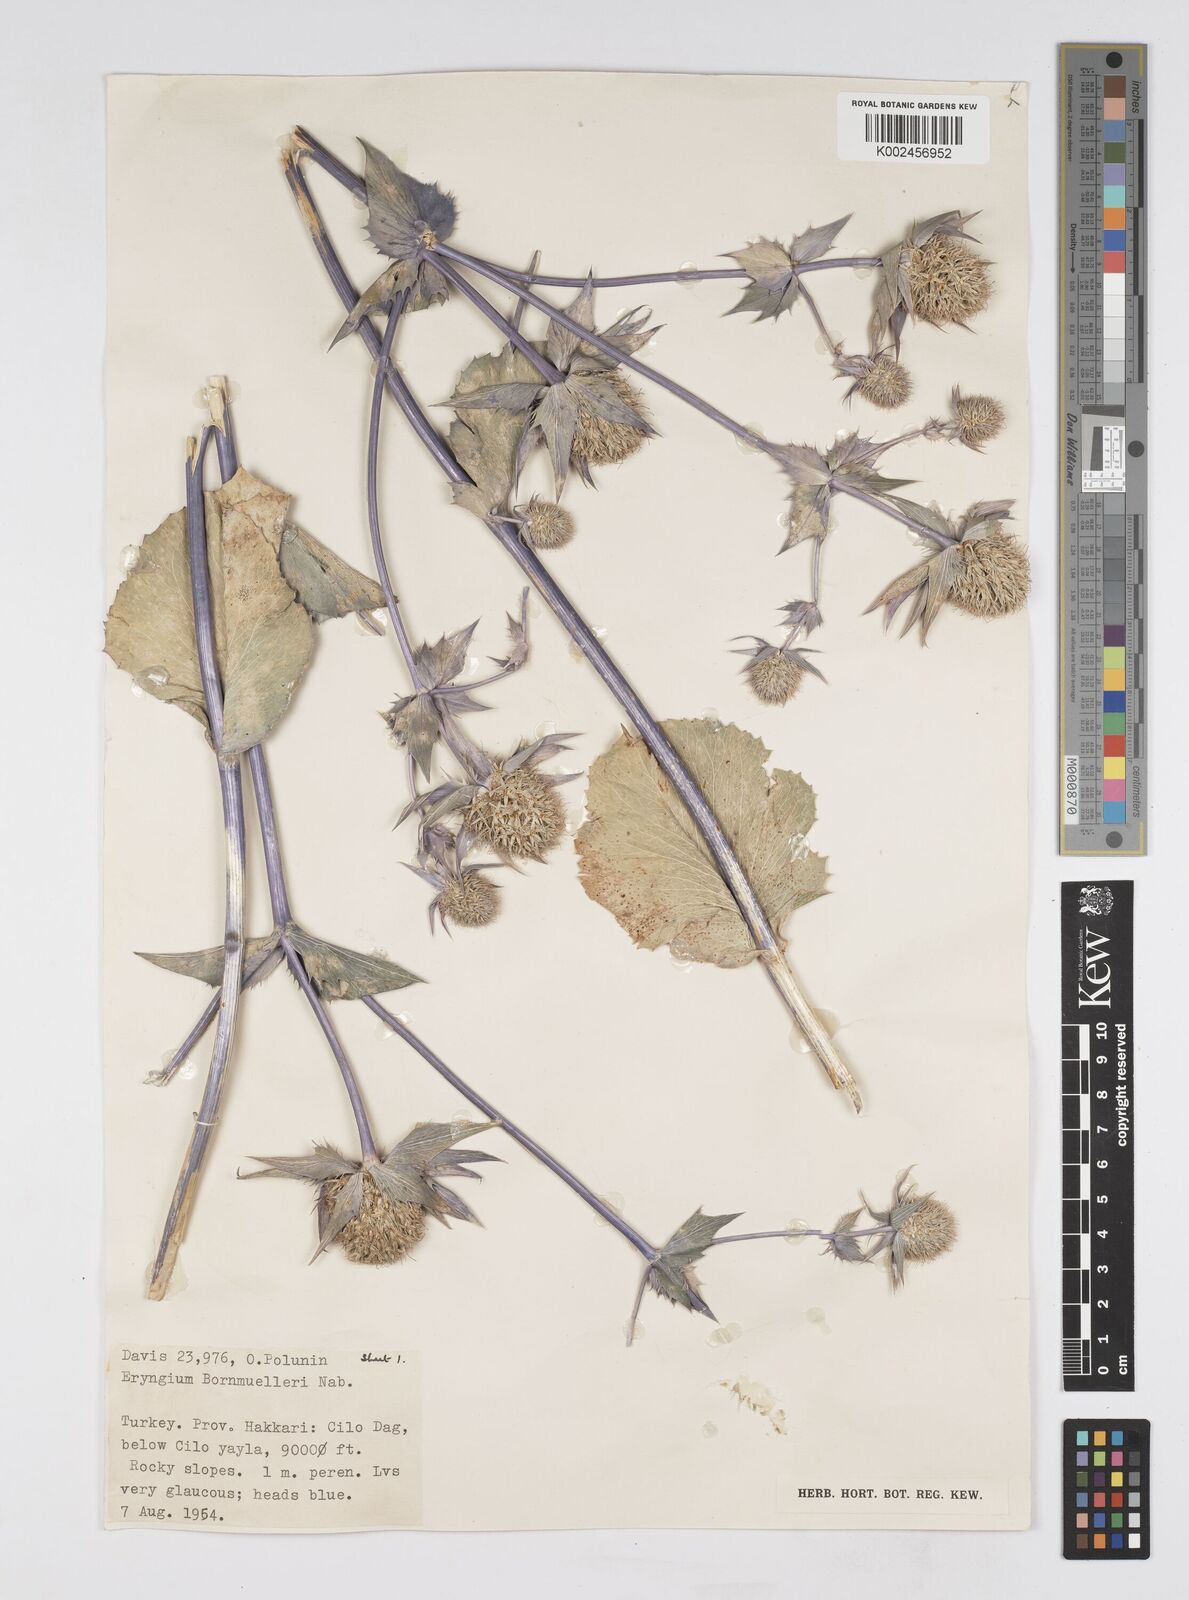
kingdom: Plantae
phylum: Tracheophyta
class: Magnoliopsida
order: Apiales
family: Apiaceae
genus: Eryngium
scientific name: Eryngium bornmuelleri
